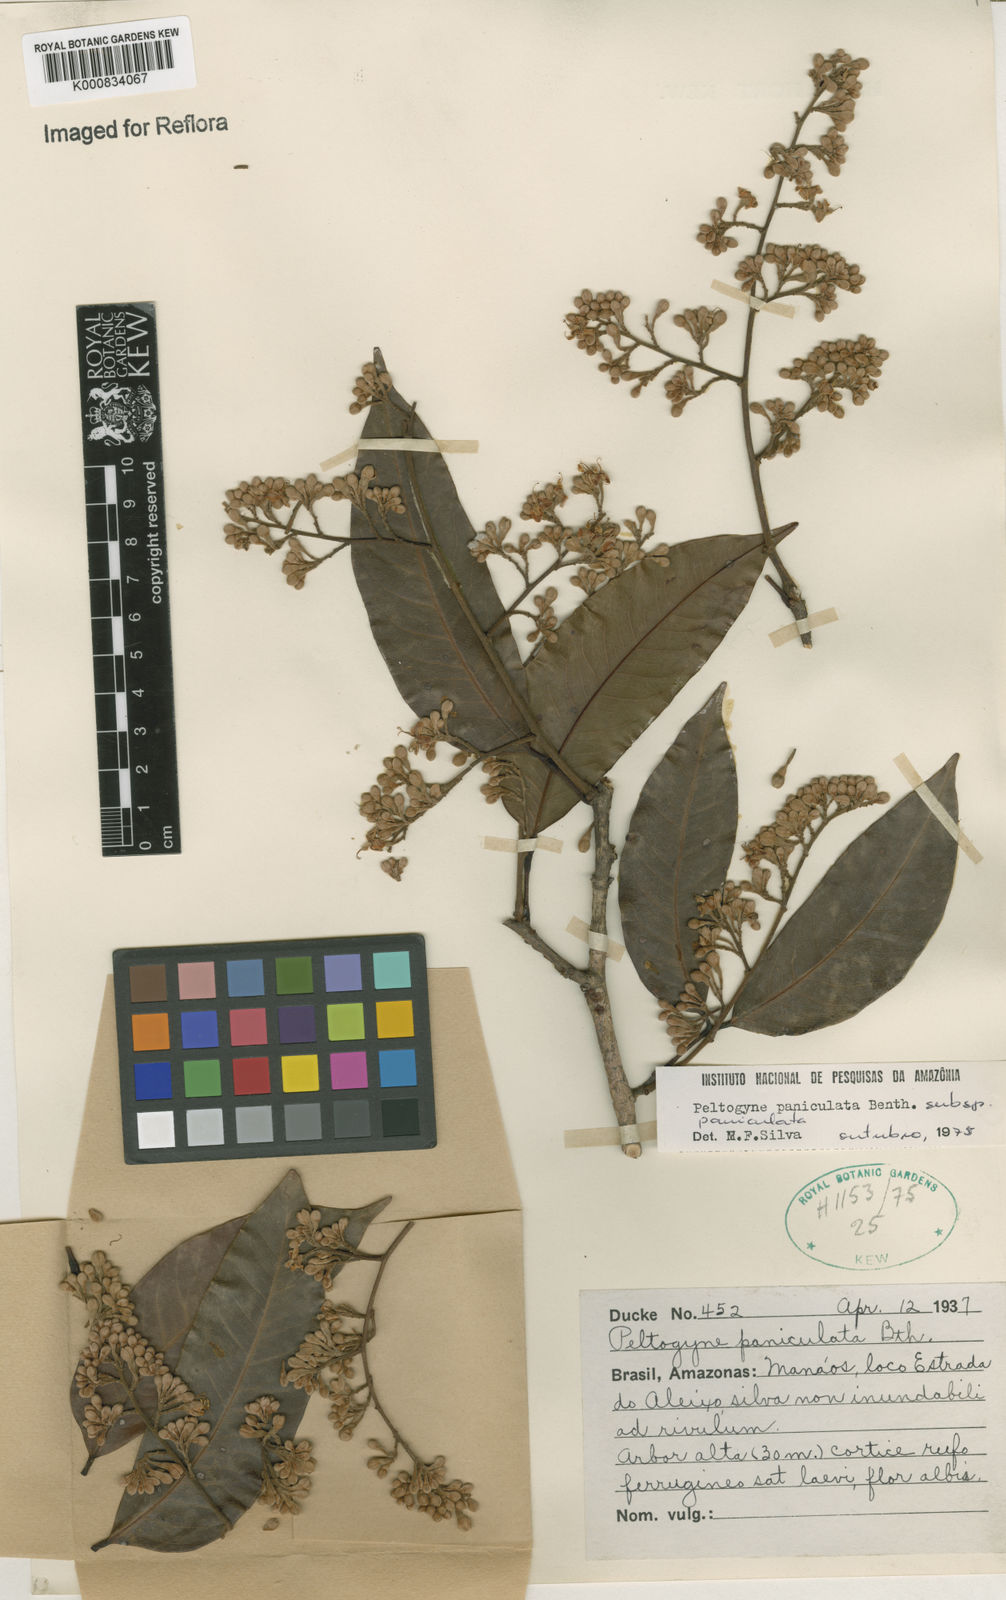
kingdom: Plantae
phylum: Tracheophyta
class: Magnoliopsida
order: Fabales
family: Fabaceae
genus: Peltogyne
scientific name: Peltogyne paniculata
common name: Purpleheart
